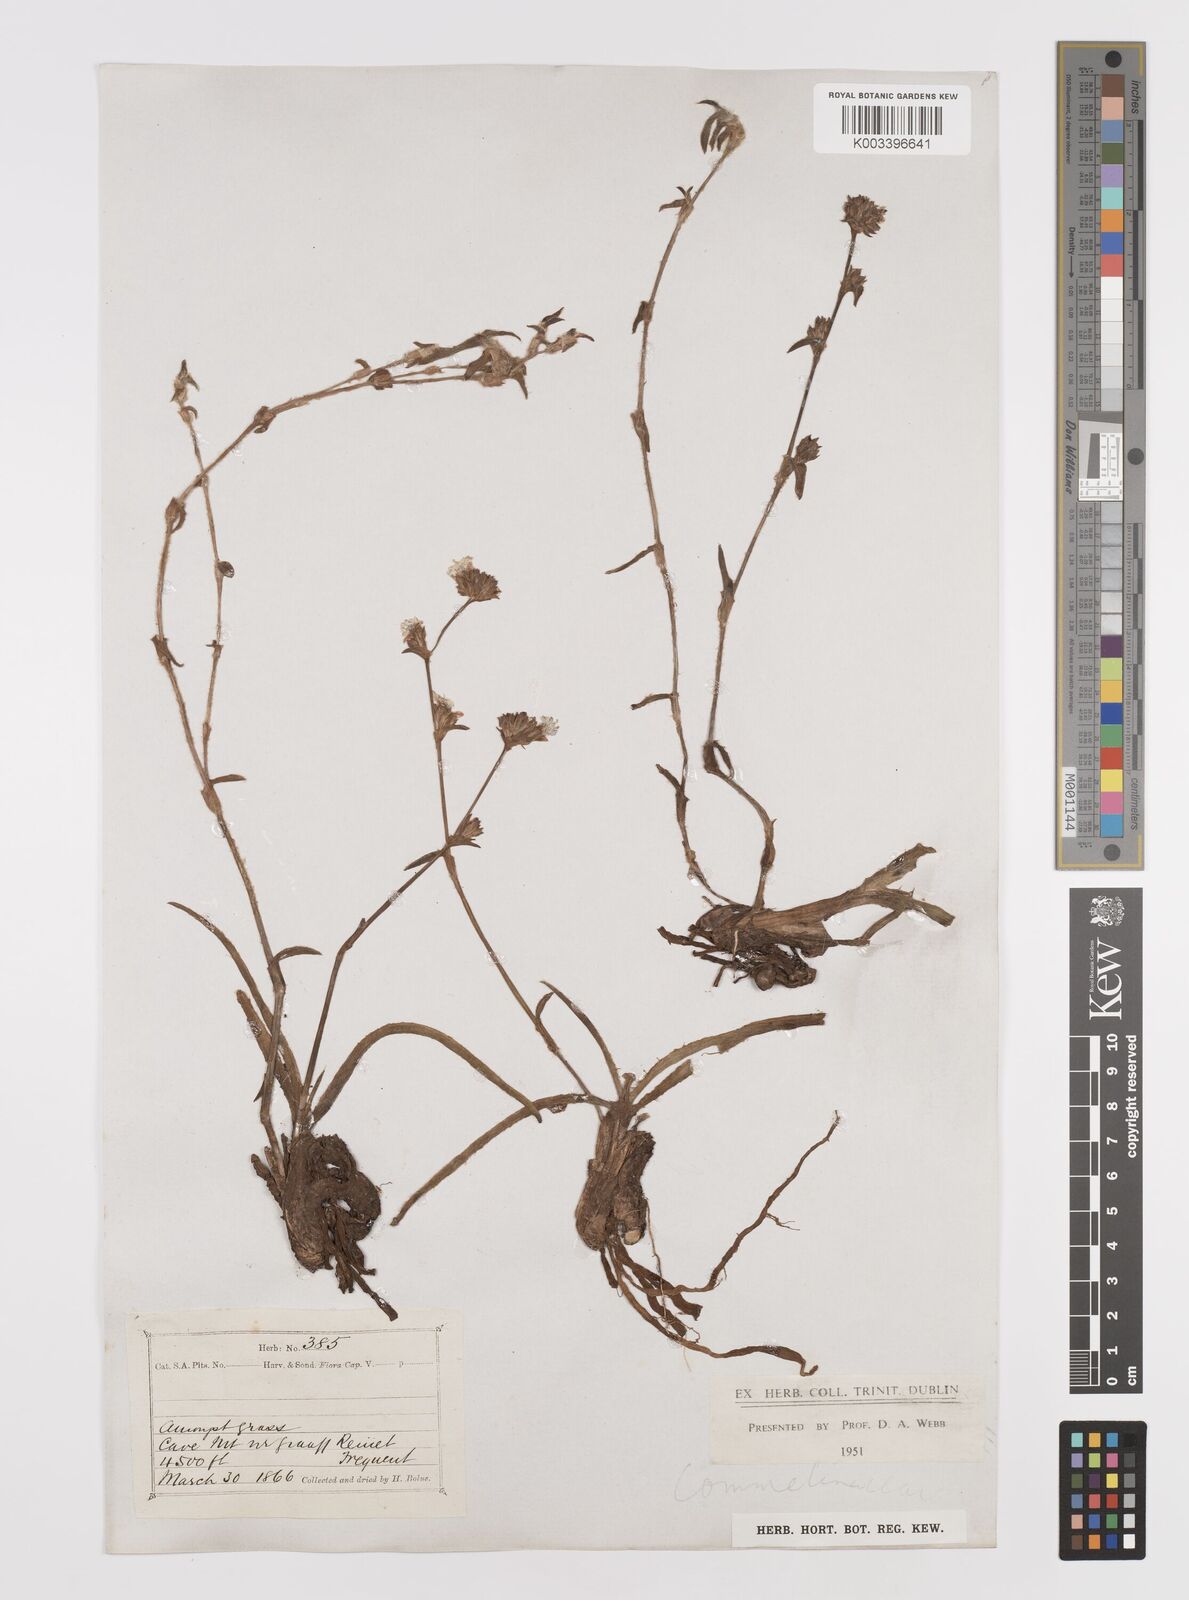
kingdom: Plantae
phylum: Tracheophyta
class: Liliopsida
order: Commelinales
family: Commelinaceae
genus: Cyanotis
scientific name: Cyanotis speciosa
